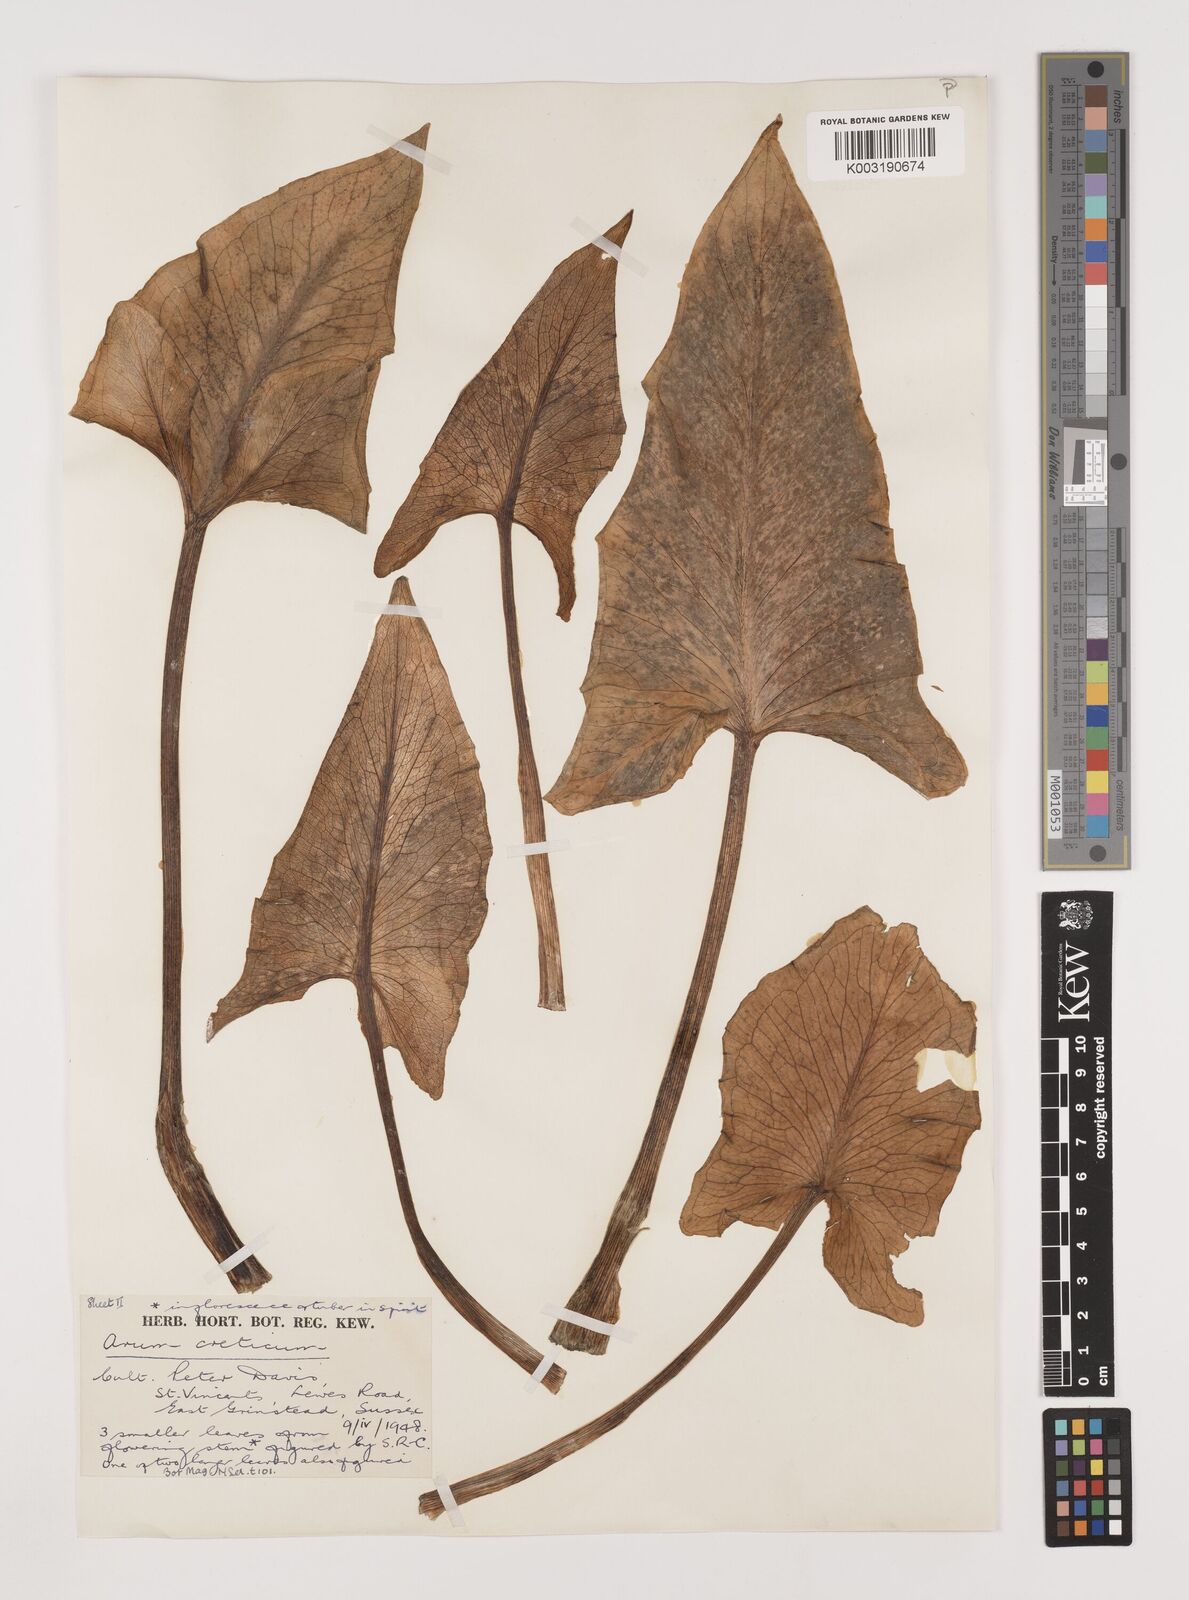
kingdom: Plantae
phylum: Tracheophyta
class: Liliopsida
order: Alismatales
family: Araceae
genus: Arum
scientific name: Arum creticum
